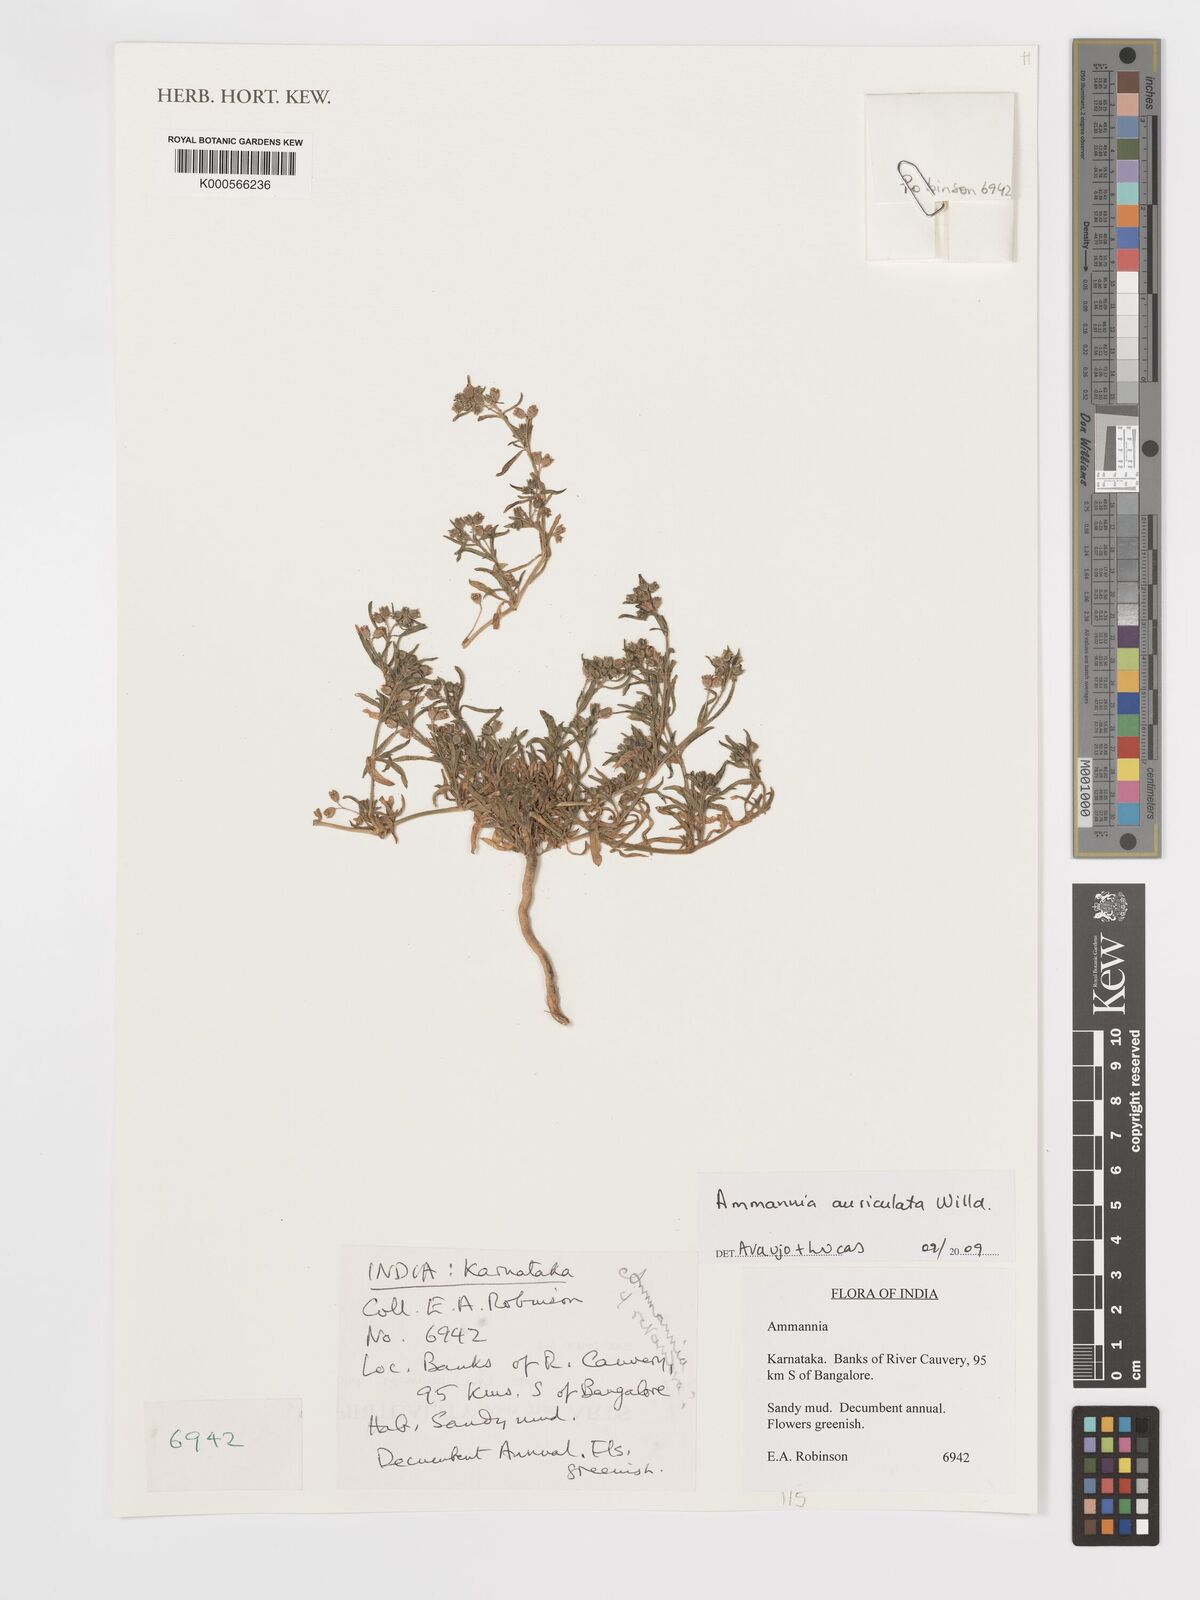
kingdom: Plantae
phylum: Tracheophyta
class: Magnoliopsida
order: Myrtales
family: Lythraceae
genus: Ammannia
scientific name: Ammannia auriculata
